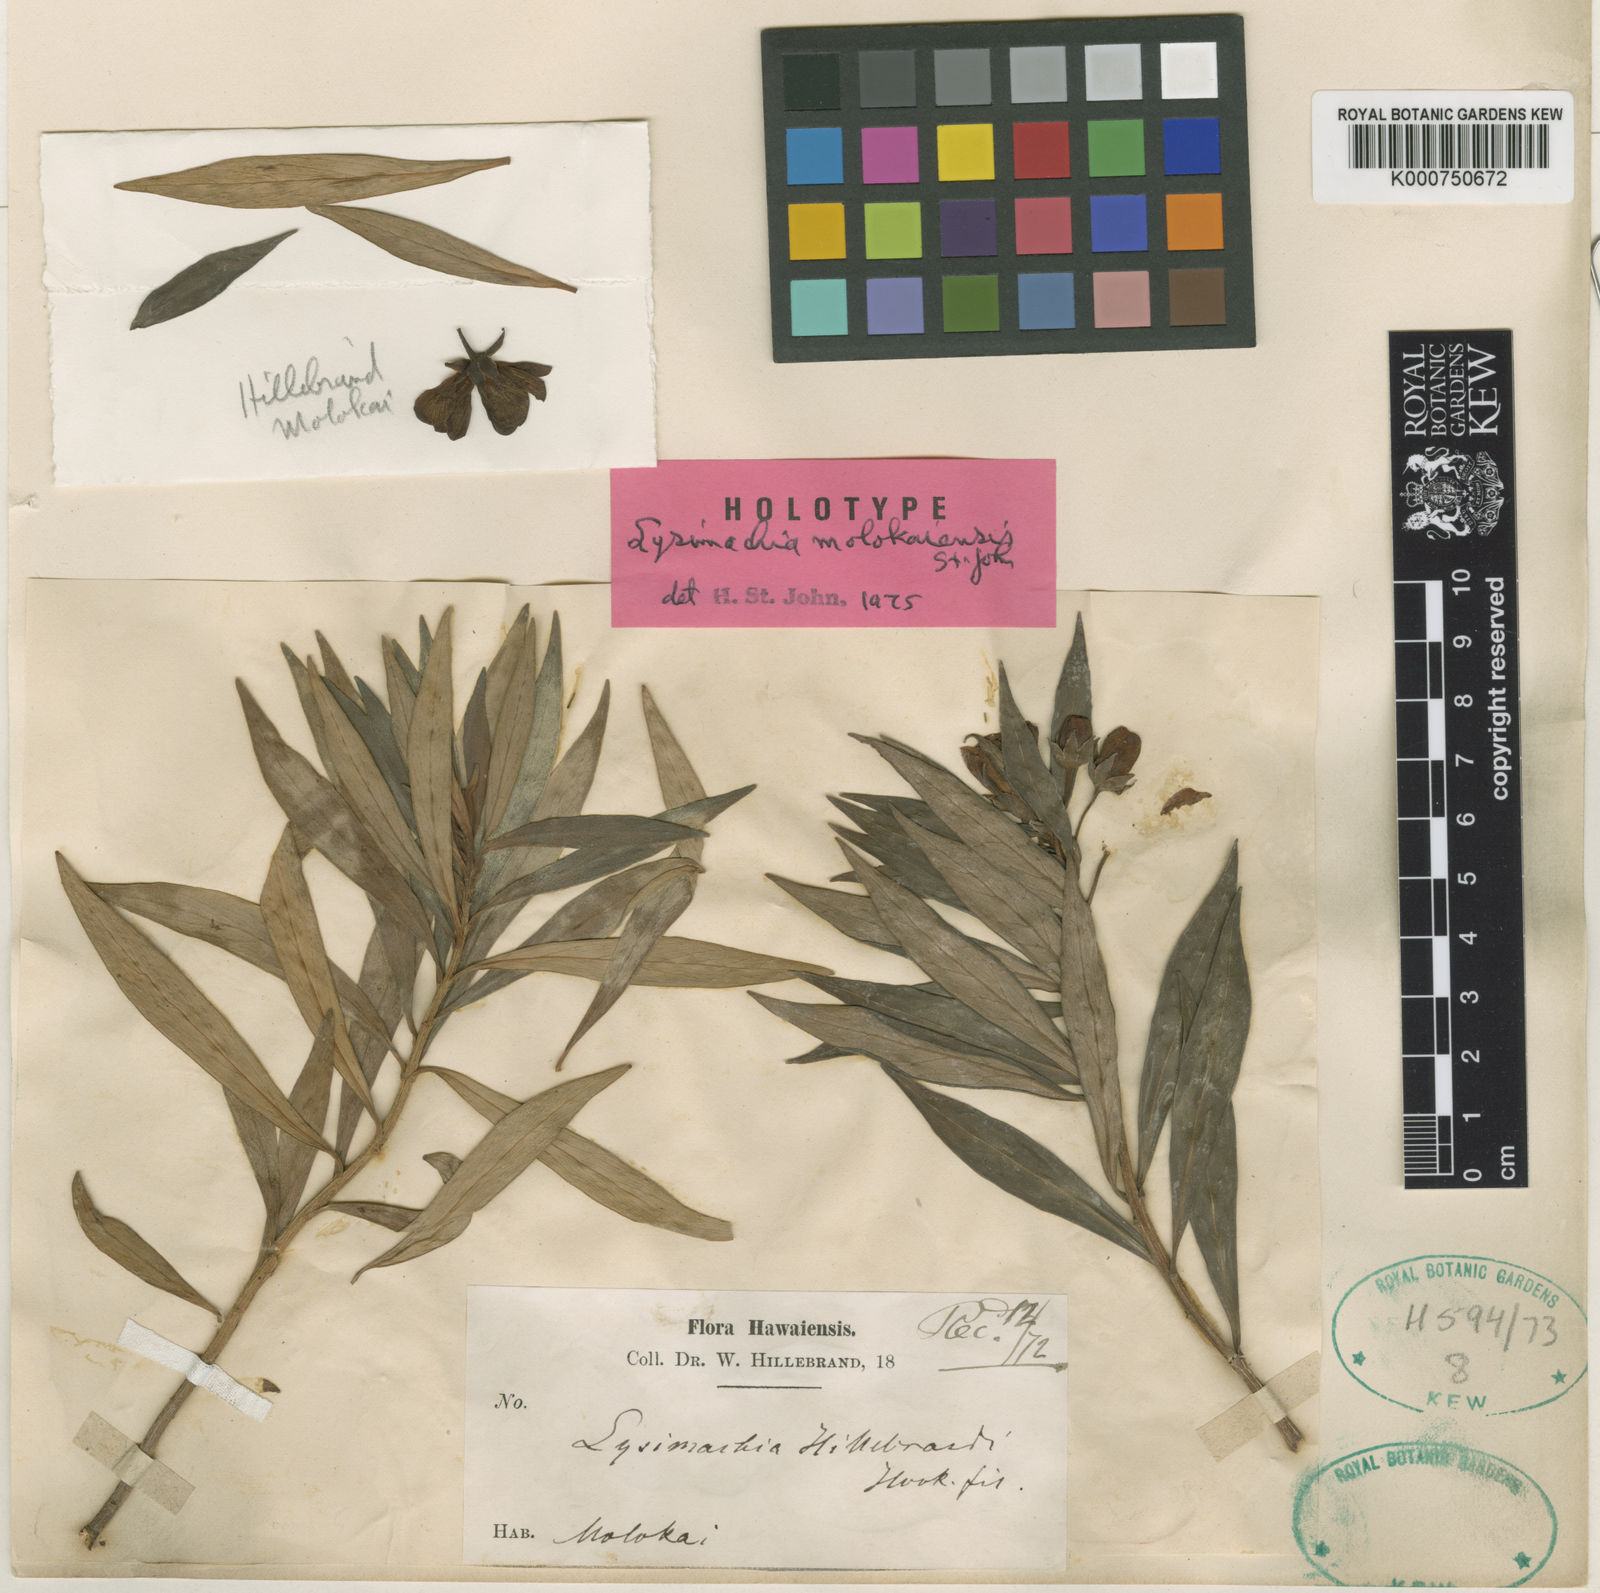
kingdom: Plantae
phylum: Tracheophyta
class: Magnoliopsida
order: Ericales
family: Primulaceae
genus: Lysimachia
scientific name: Lysimachia remyi
